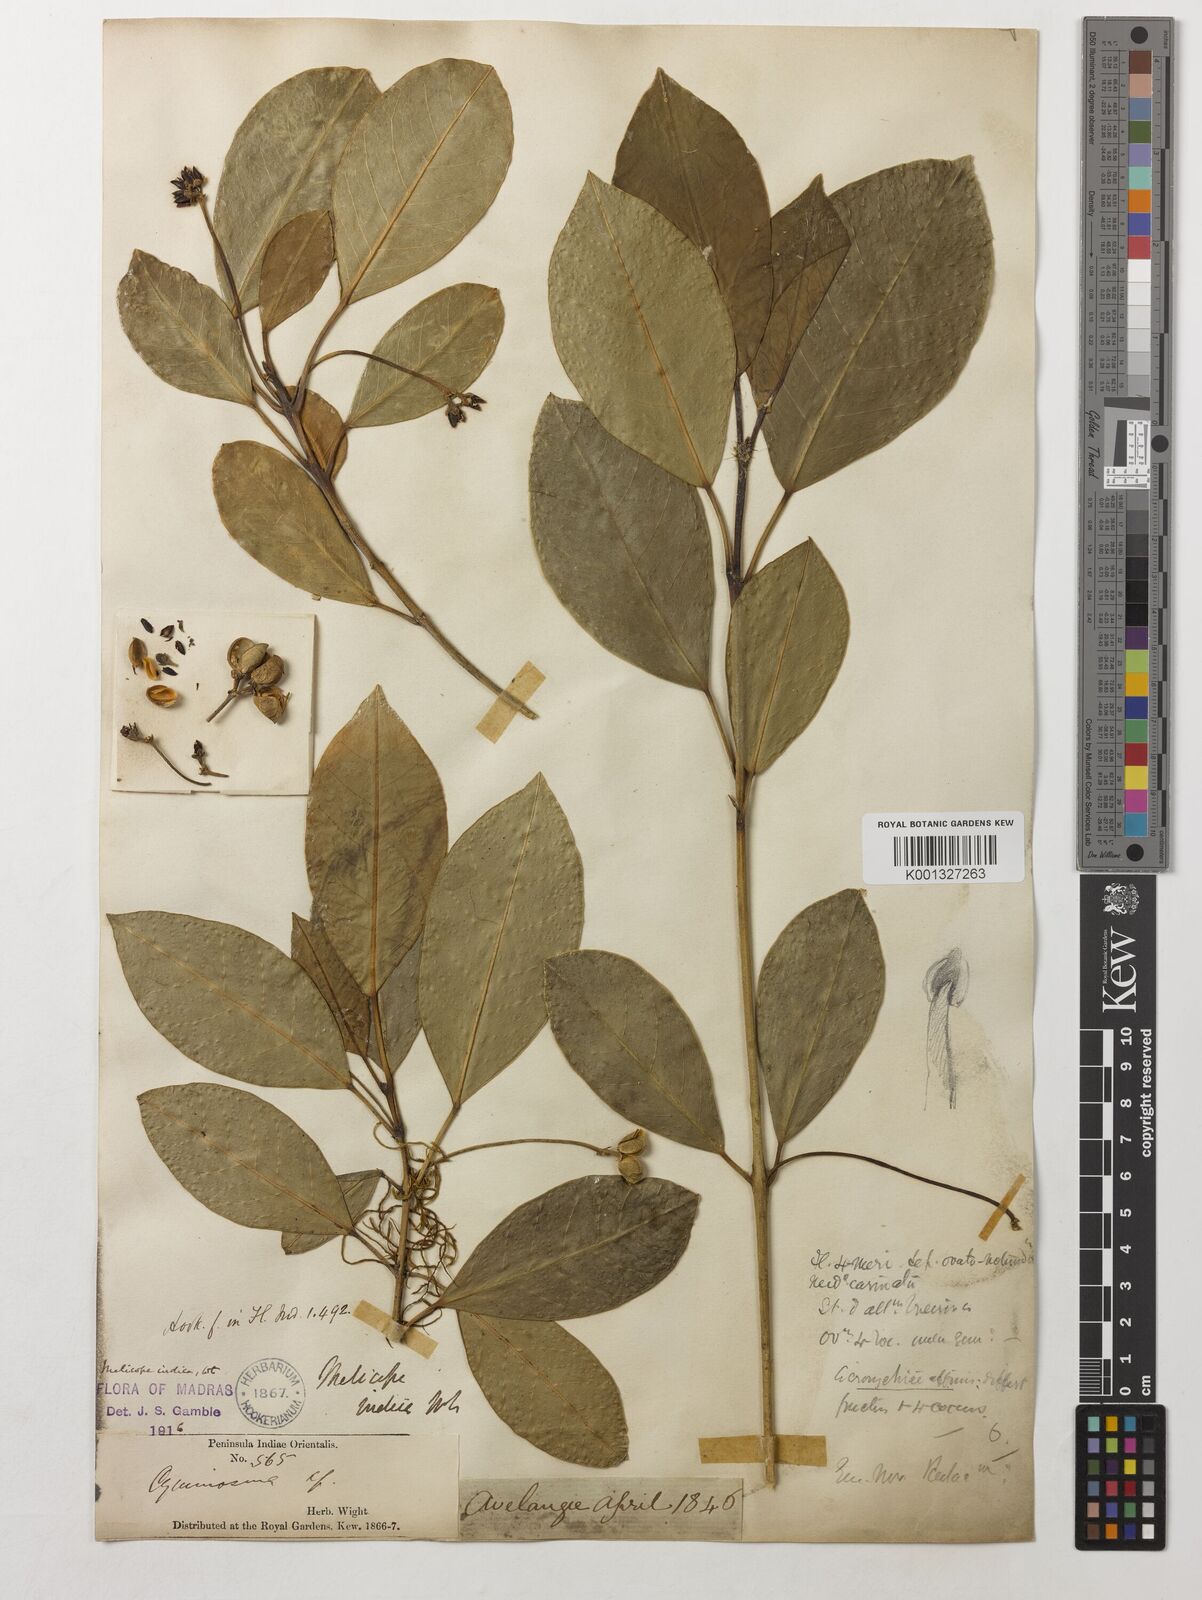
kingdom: Plantae
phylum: Tracheophyta
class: Magnoliopsida
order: Sapindales
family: Rutaceae
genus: Melicope
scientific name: Melicope indica
